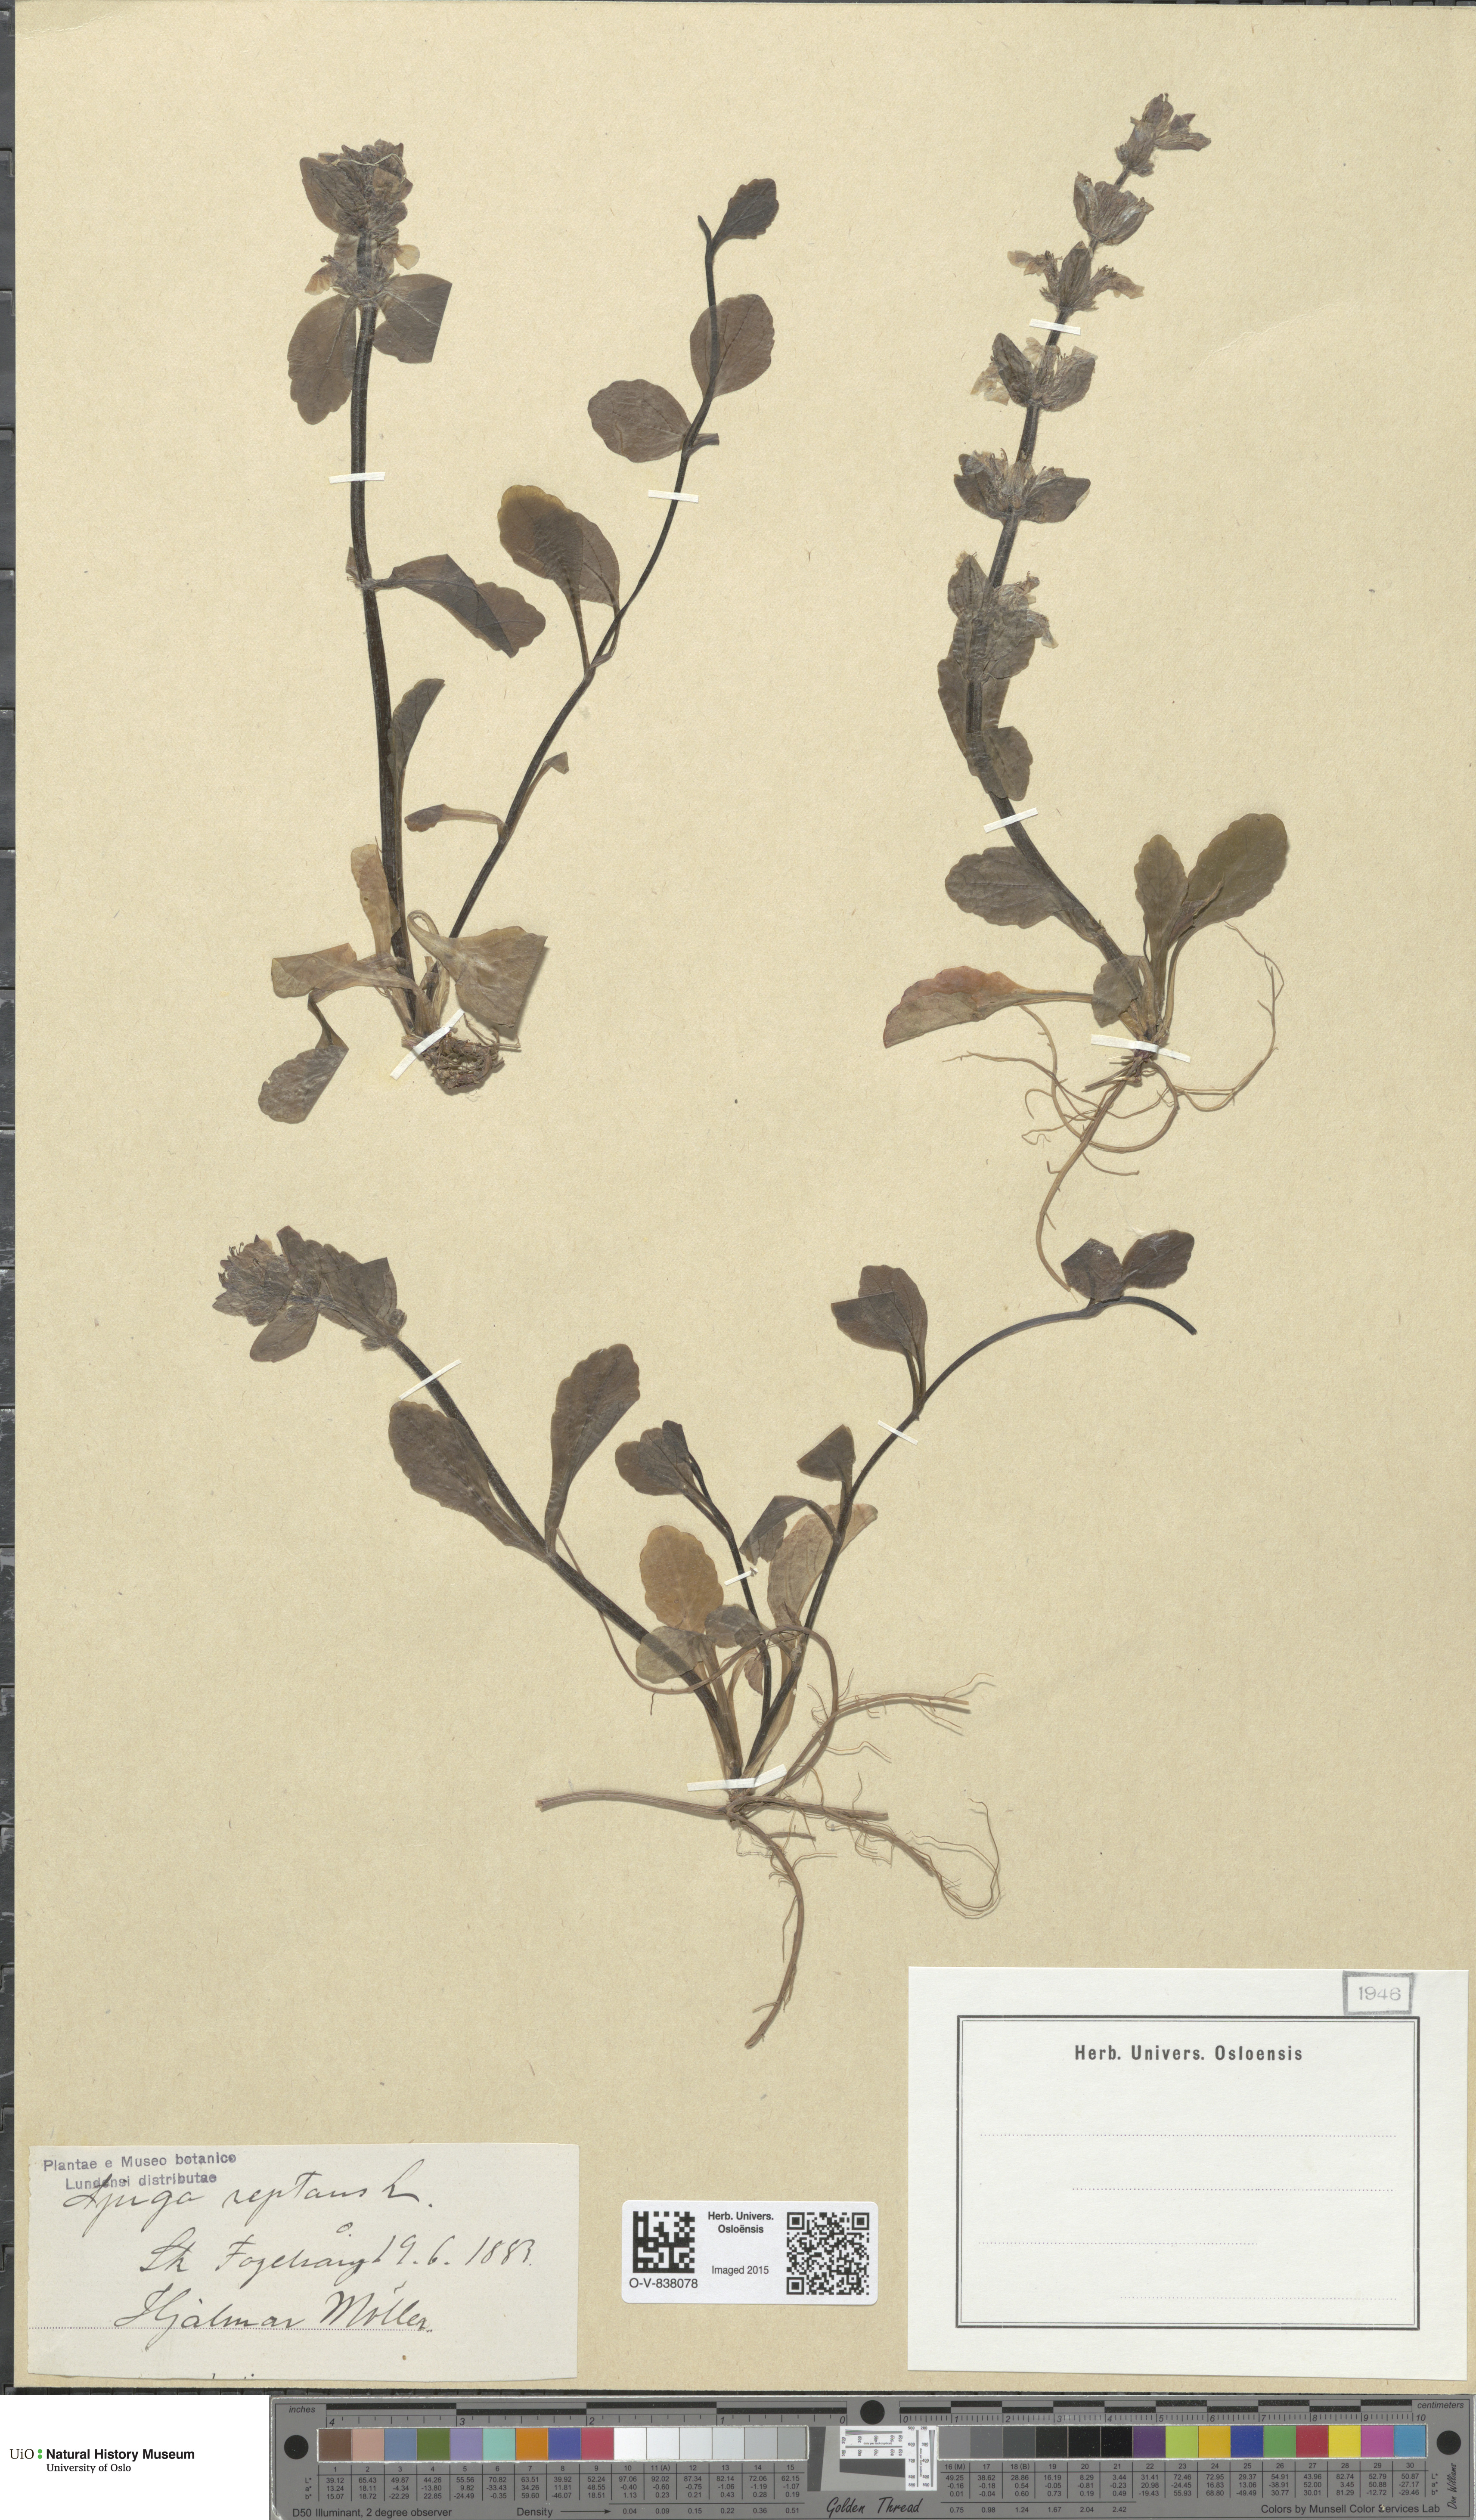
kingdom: Plantae
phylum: Tracheophyta
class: Magnoliopsida
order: Lamiales
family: Lamiaceae
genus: Ajuga
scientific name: Ajuga reptans
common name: Bugle
